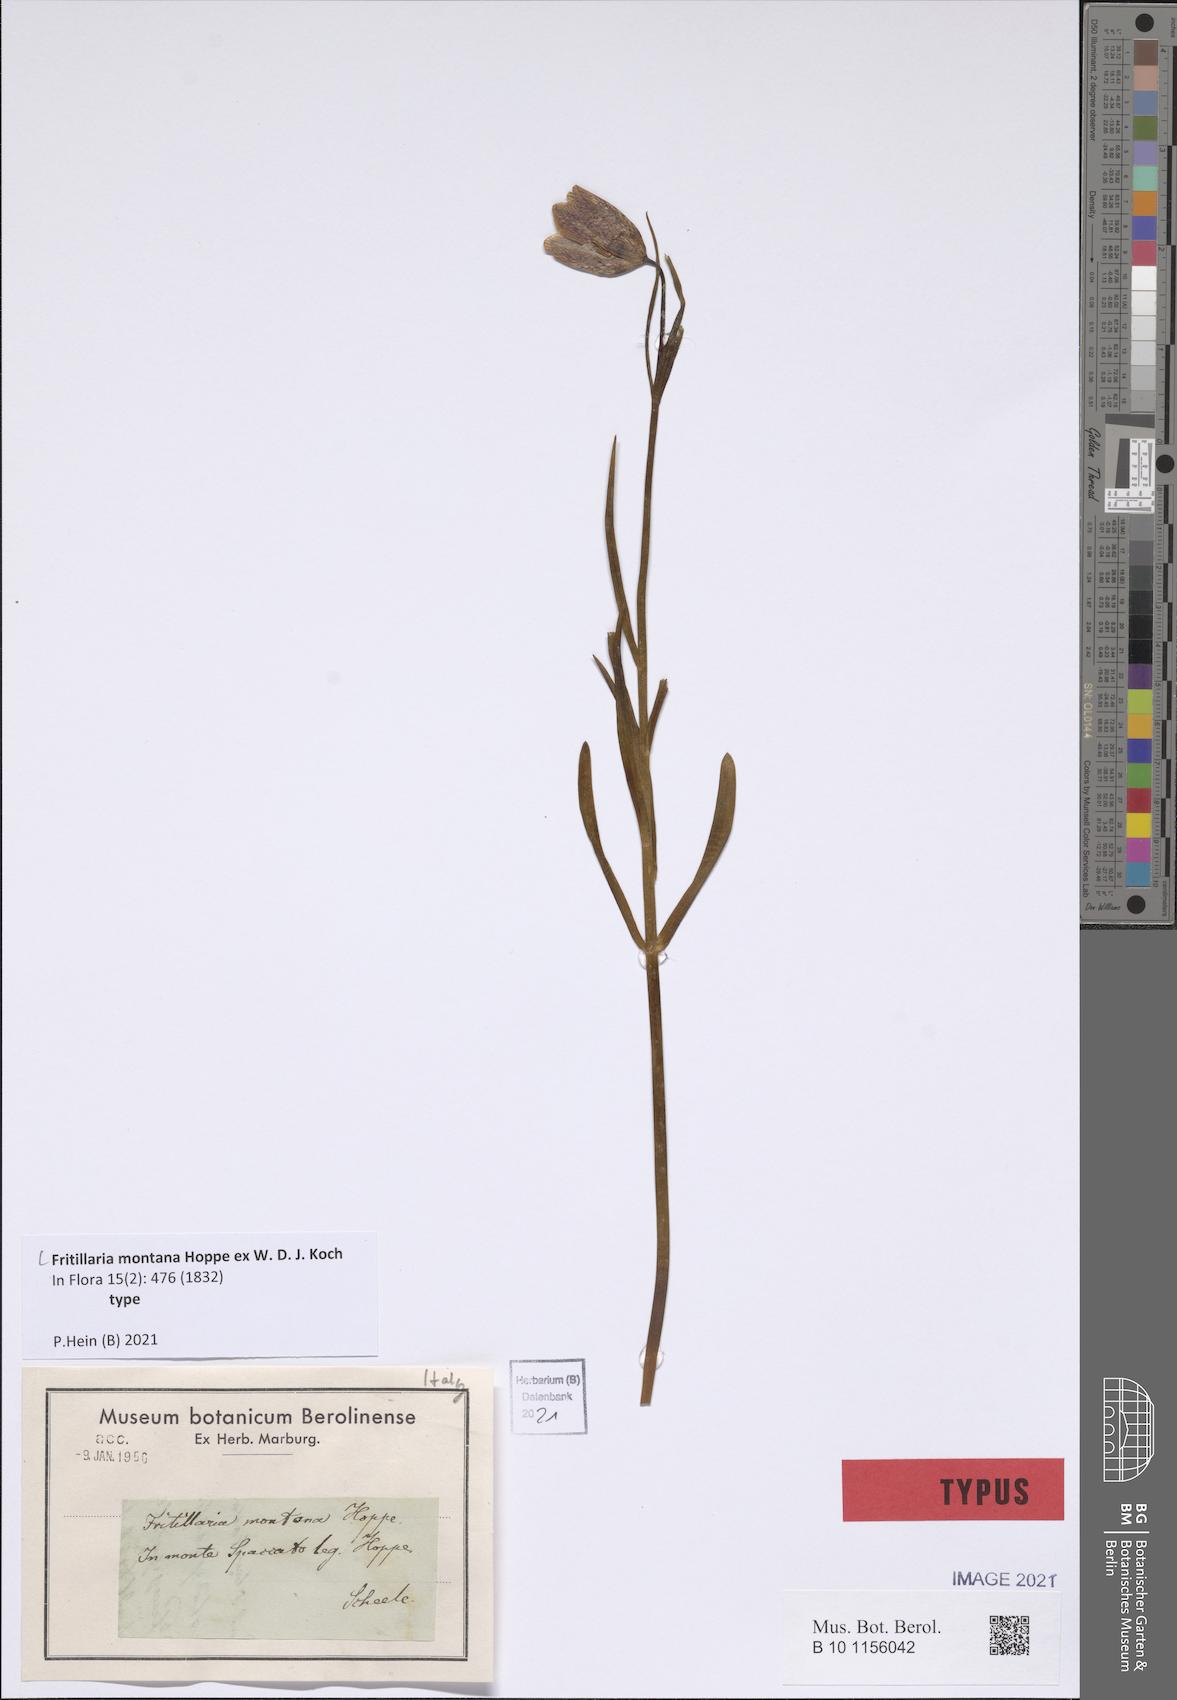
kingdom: Plantae
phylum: Tracheophyta
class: Liliopsida
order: Liliales
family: Liliaceae
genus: Fritillaria
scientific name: Fritillaria montana
